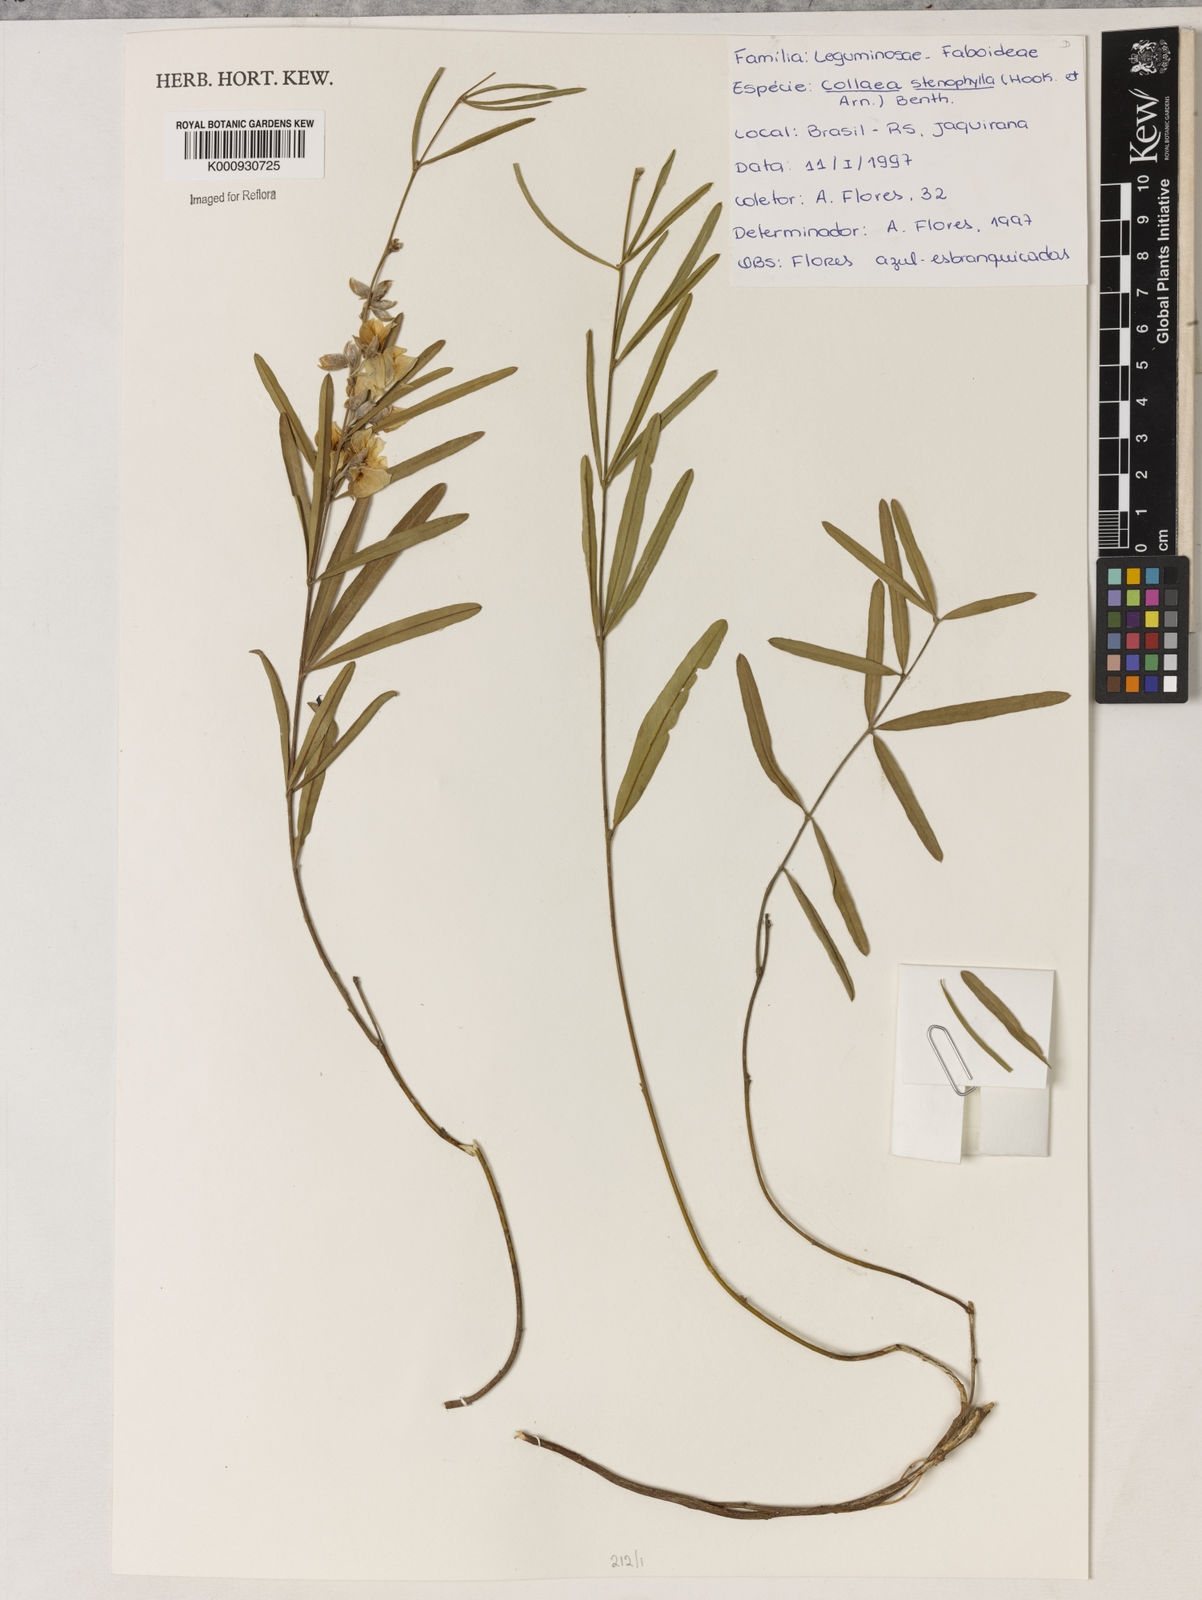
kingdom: Plantae
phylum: Tracheophyta
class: Liliopsida
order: Asparagales
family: Orchidaceae
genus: Pelexia
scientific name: Pelexia
